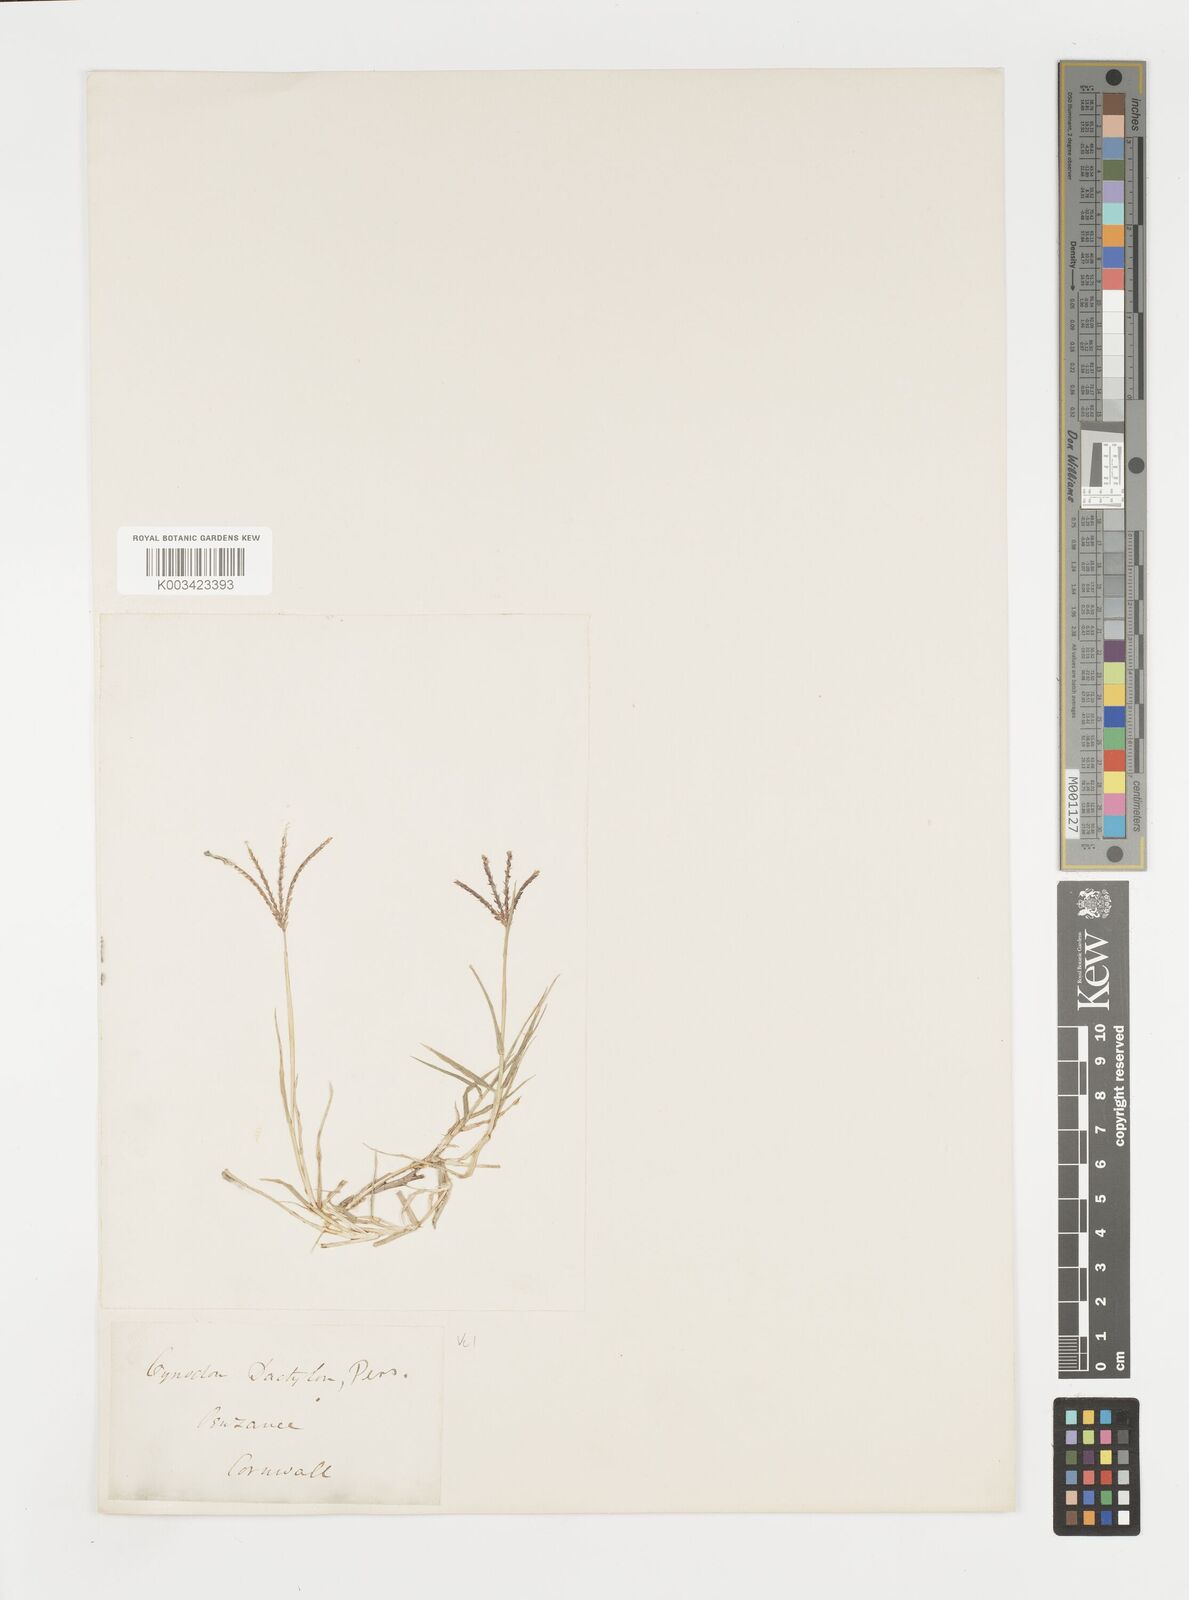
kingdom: Plantae
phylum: Tracheophyta
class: Liliopsida
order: Poales
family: Poaceae
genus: Cynodon
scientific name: Cynodon dactylon
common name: Bermuda grass
